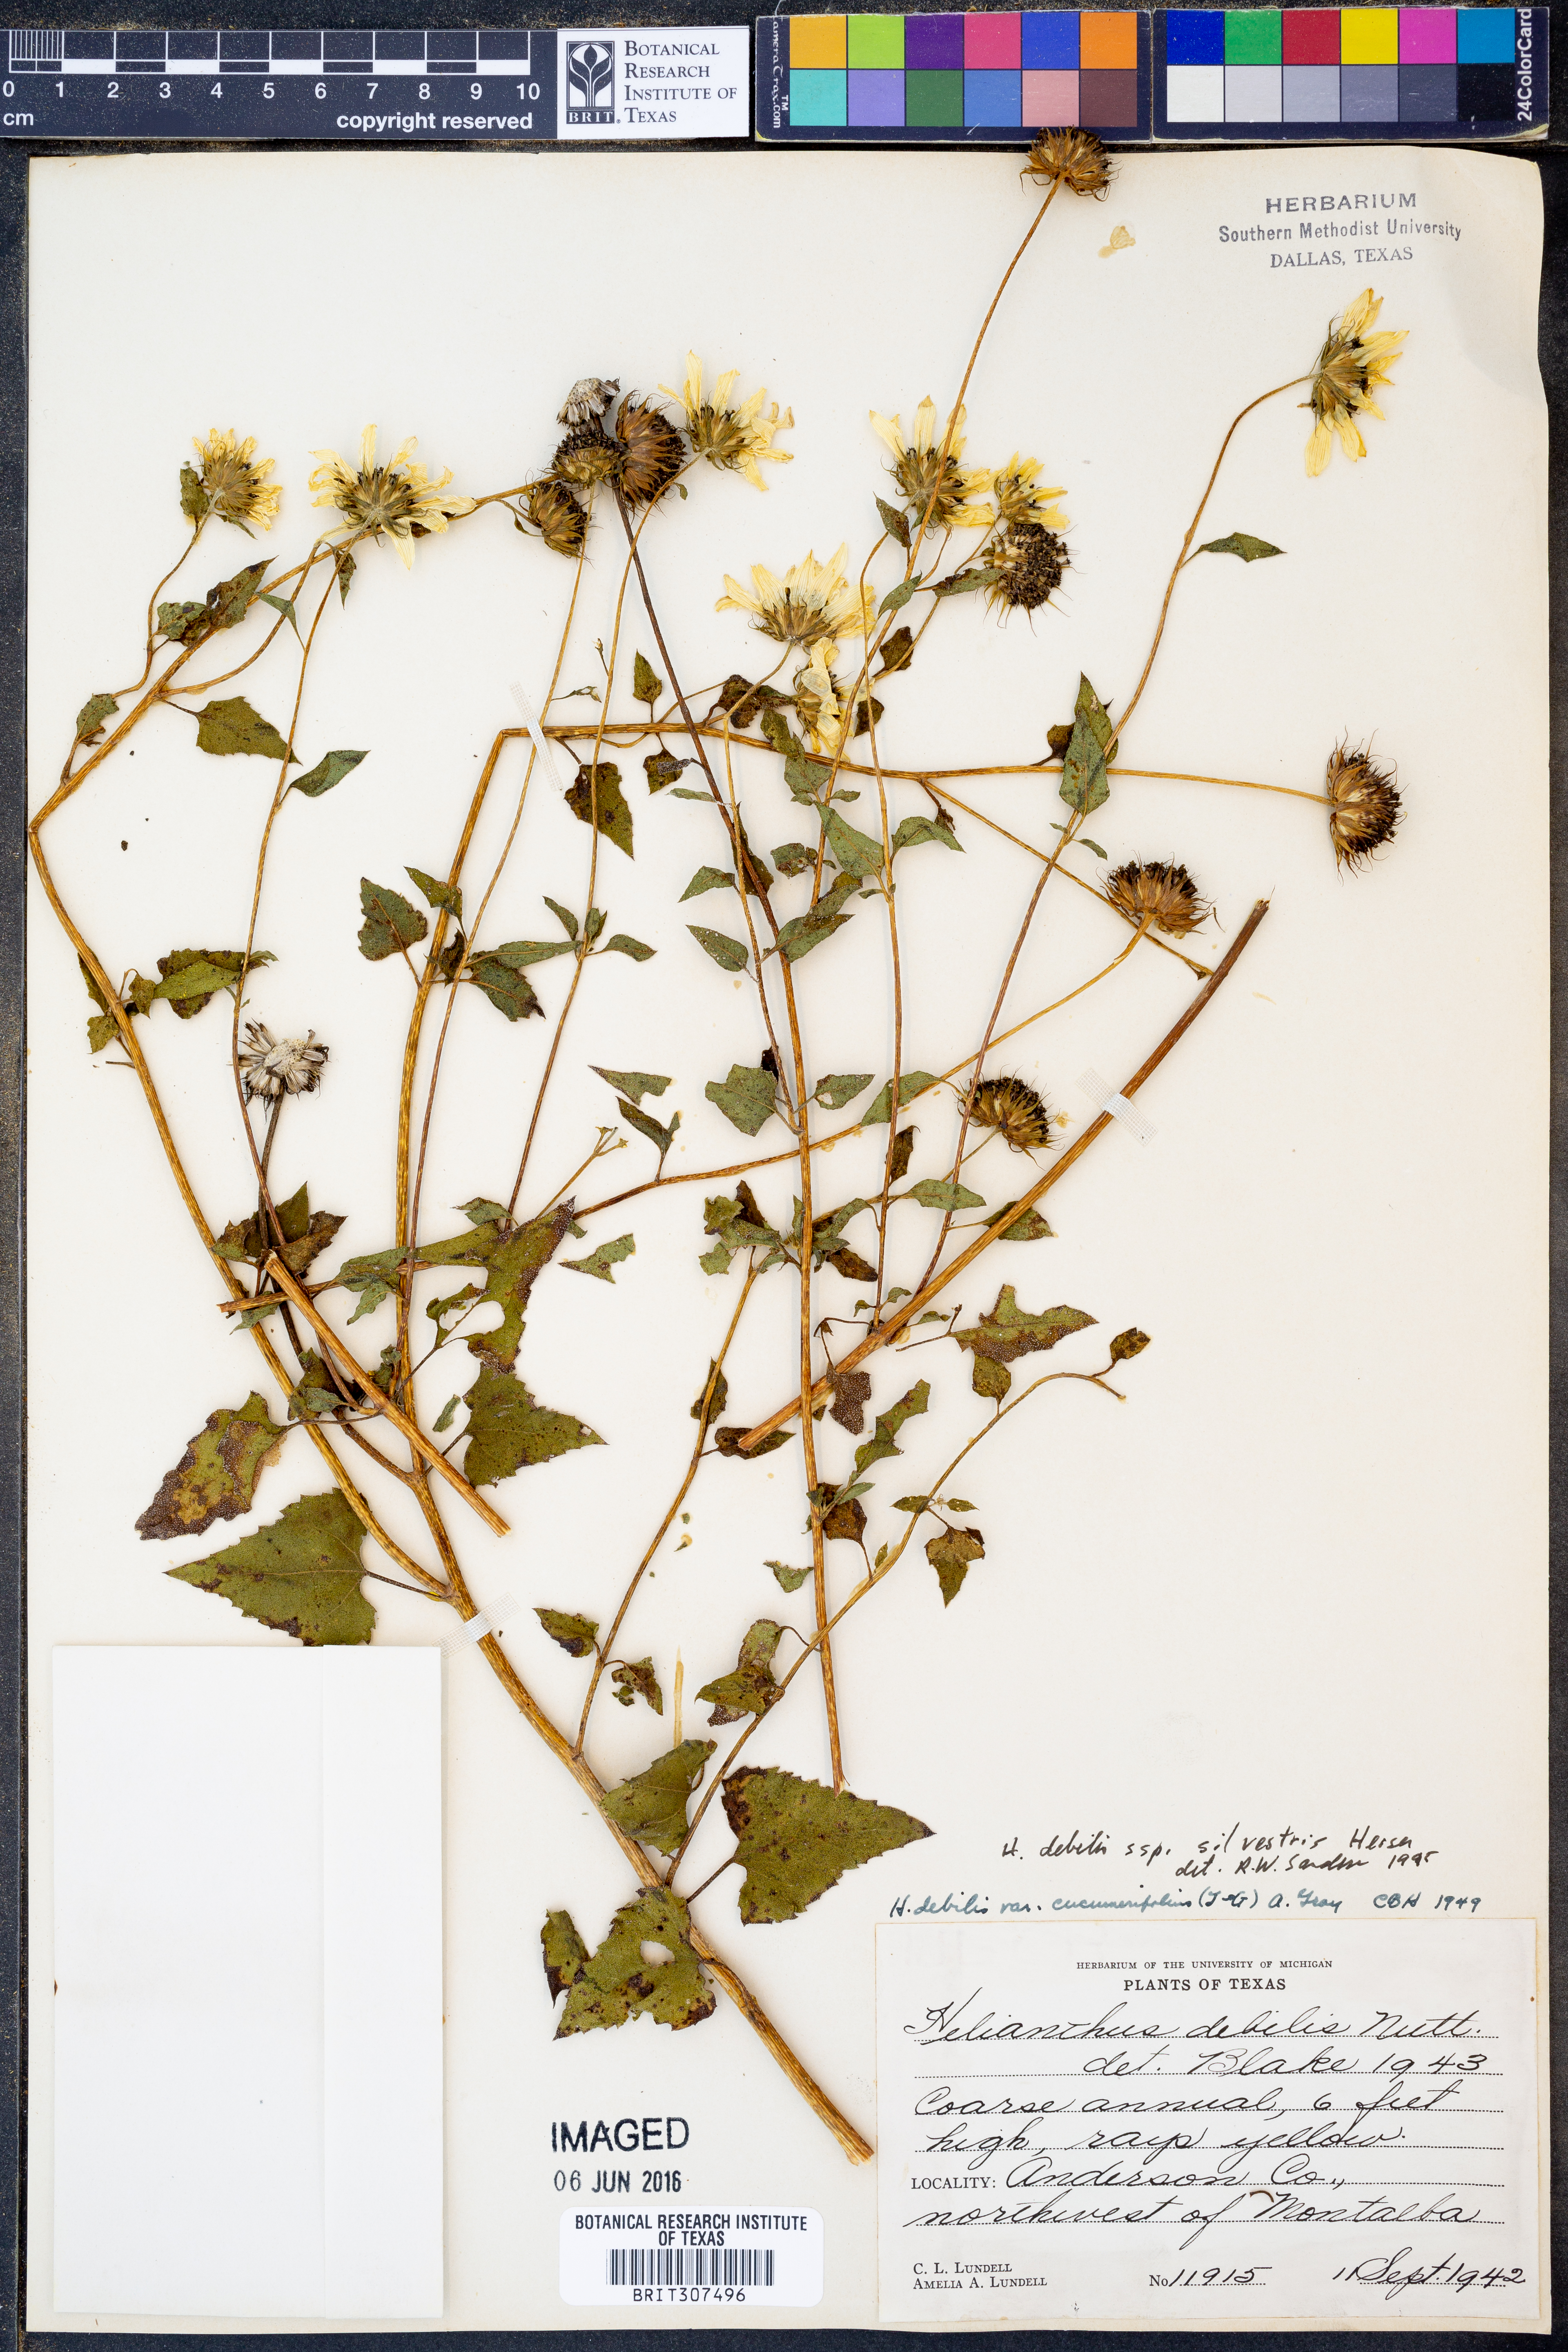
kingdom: Plantae
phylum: Tracheophyta
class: Magnoliopsida
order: Asterales
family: Asteraceae
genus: Helianthus
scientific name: Helianthus debilis
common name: Weak sunflower
